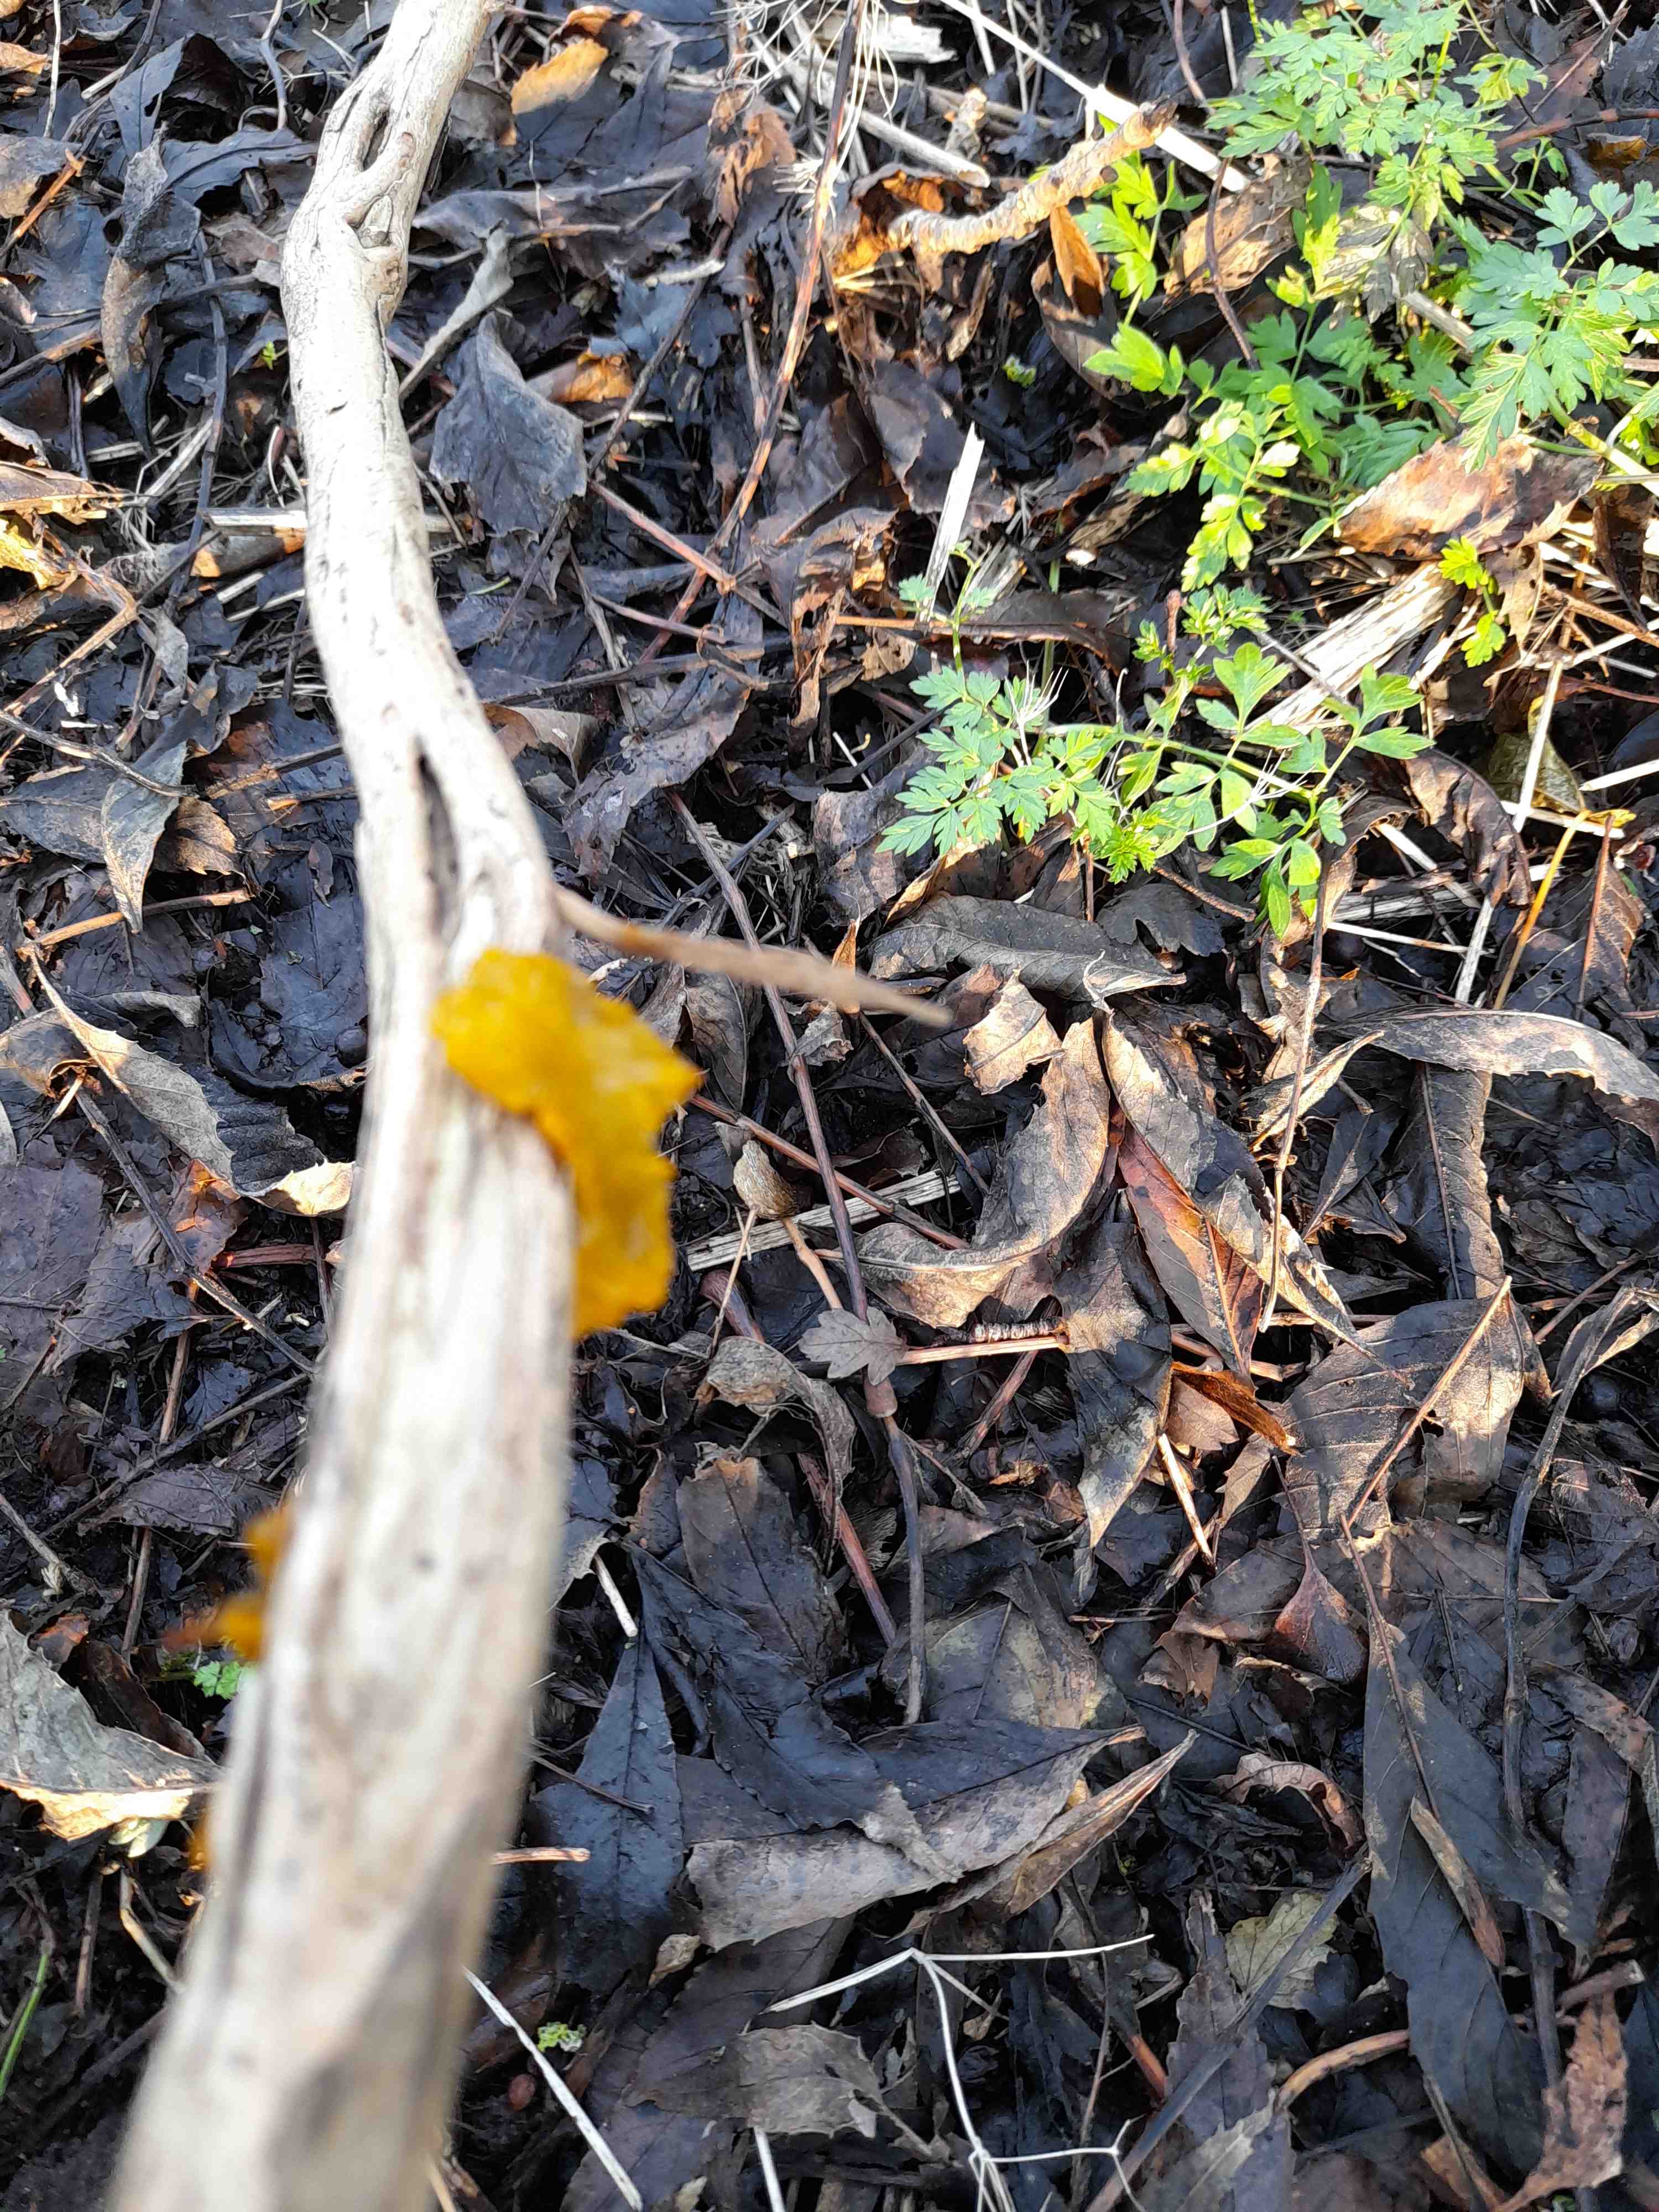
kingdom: Fungi
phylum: Basidiomycota
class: Tremellomycetes
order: Tremellales
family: Tremellaceae
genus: Tremella
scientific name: Tremella mesenterica
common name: gul bævresvamp
